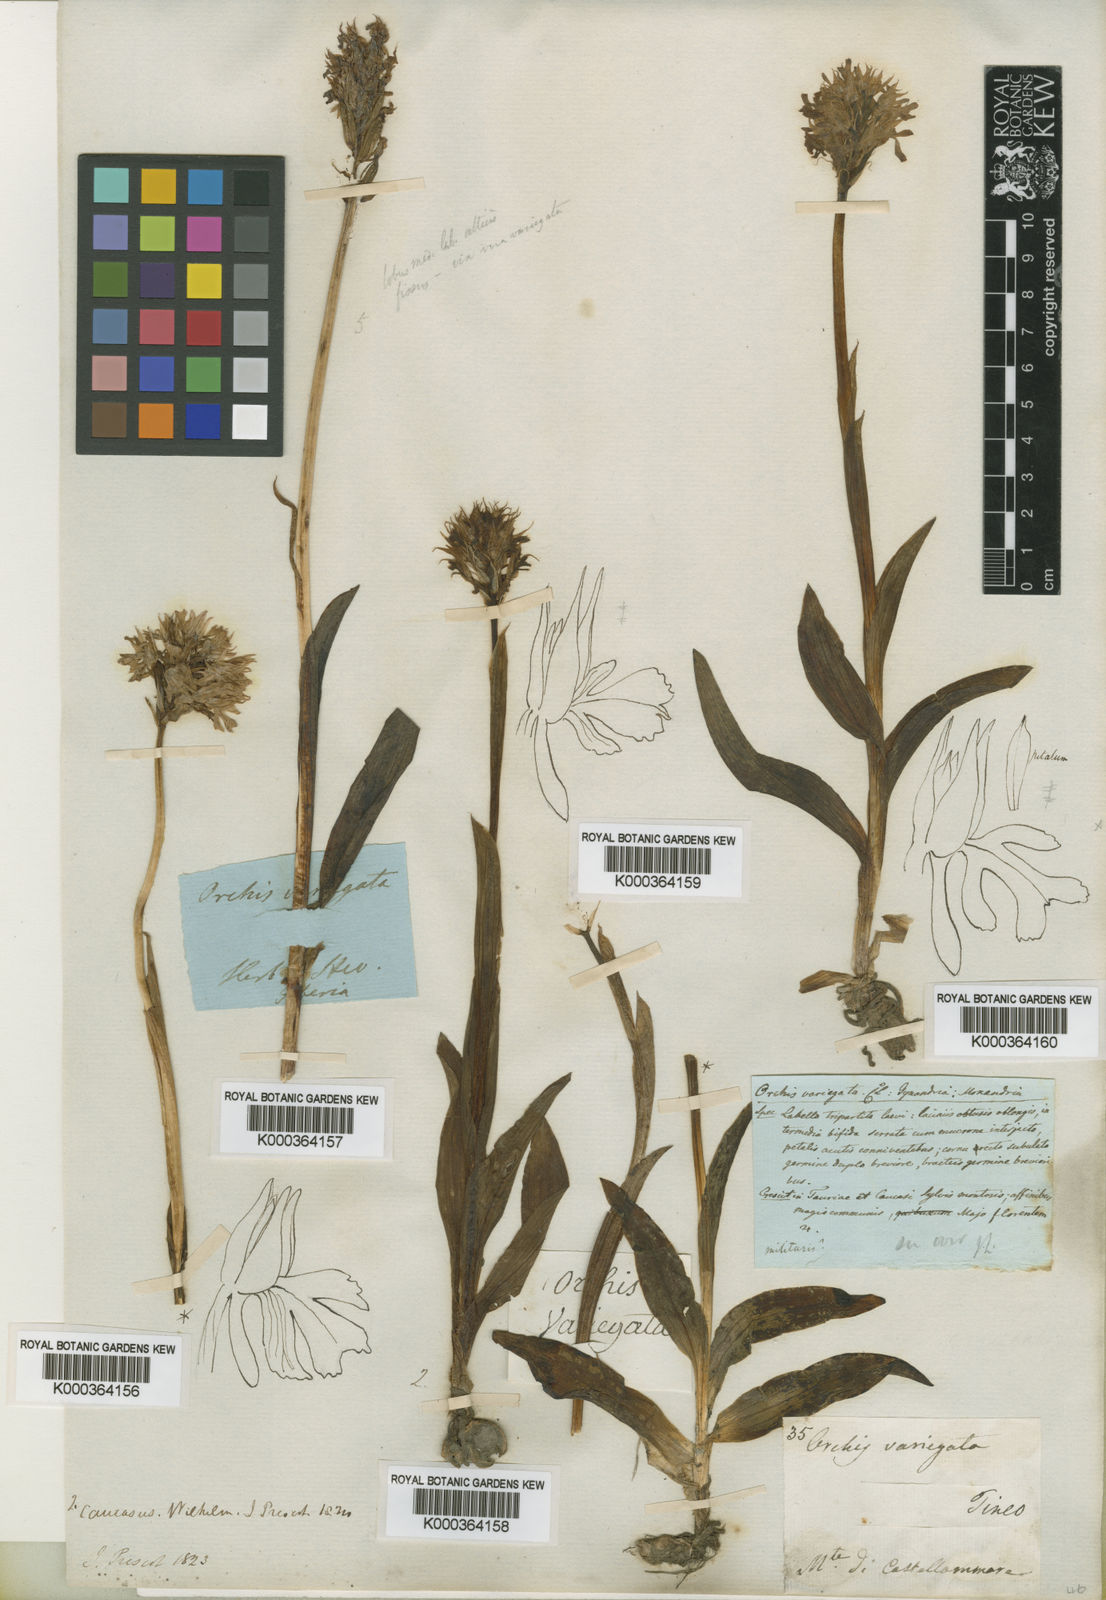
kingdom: Plantae
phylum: Tracheophyta
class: Liliopsida
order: Asparagales
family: Orchidaceae
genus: Neotinea
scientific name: Neotinea
